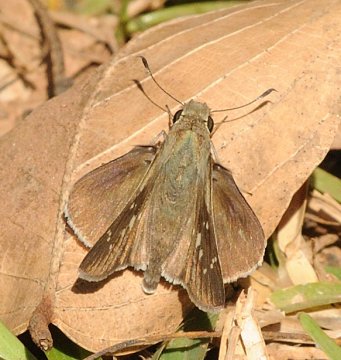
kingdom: Animalia
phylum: Arthropoda
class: Insecta
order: Lepidoptera
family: Hesperiidae
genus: Pelopidas
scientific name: Pelopidas mathias
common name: Small Branded Swift
